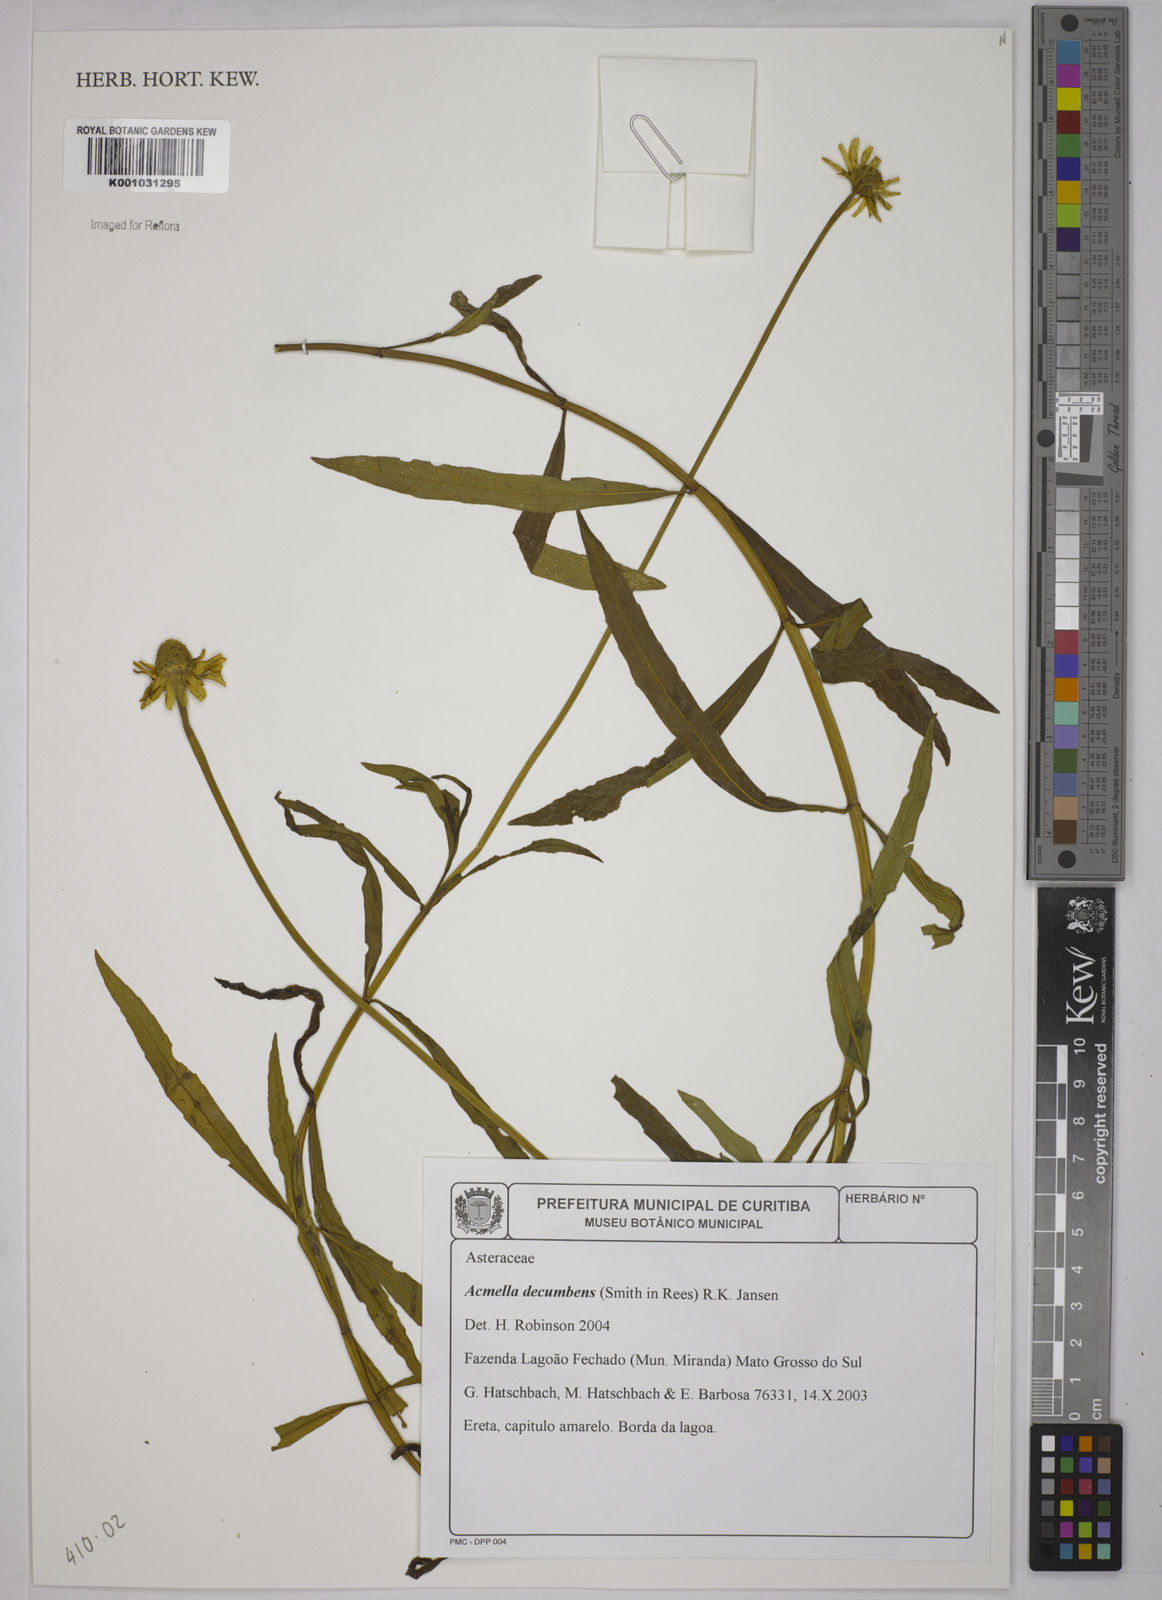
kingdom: Plantae
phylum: Tracheophyta
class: Magnoliopsida
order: Asterales
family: Asteraceae
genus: Acmella
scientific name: Acmella decumbens
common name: Creeping spotflower
